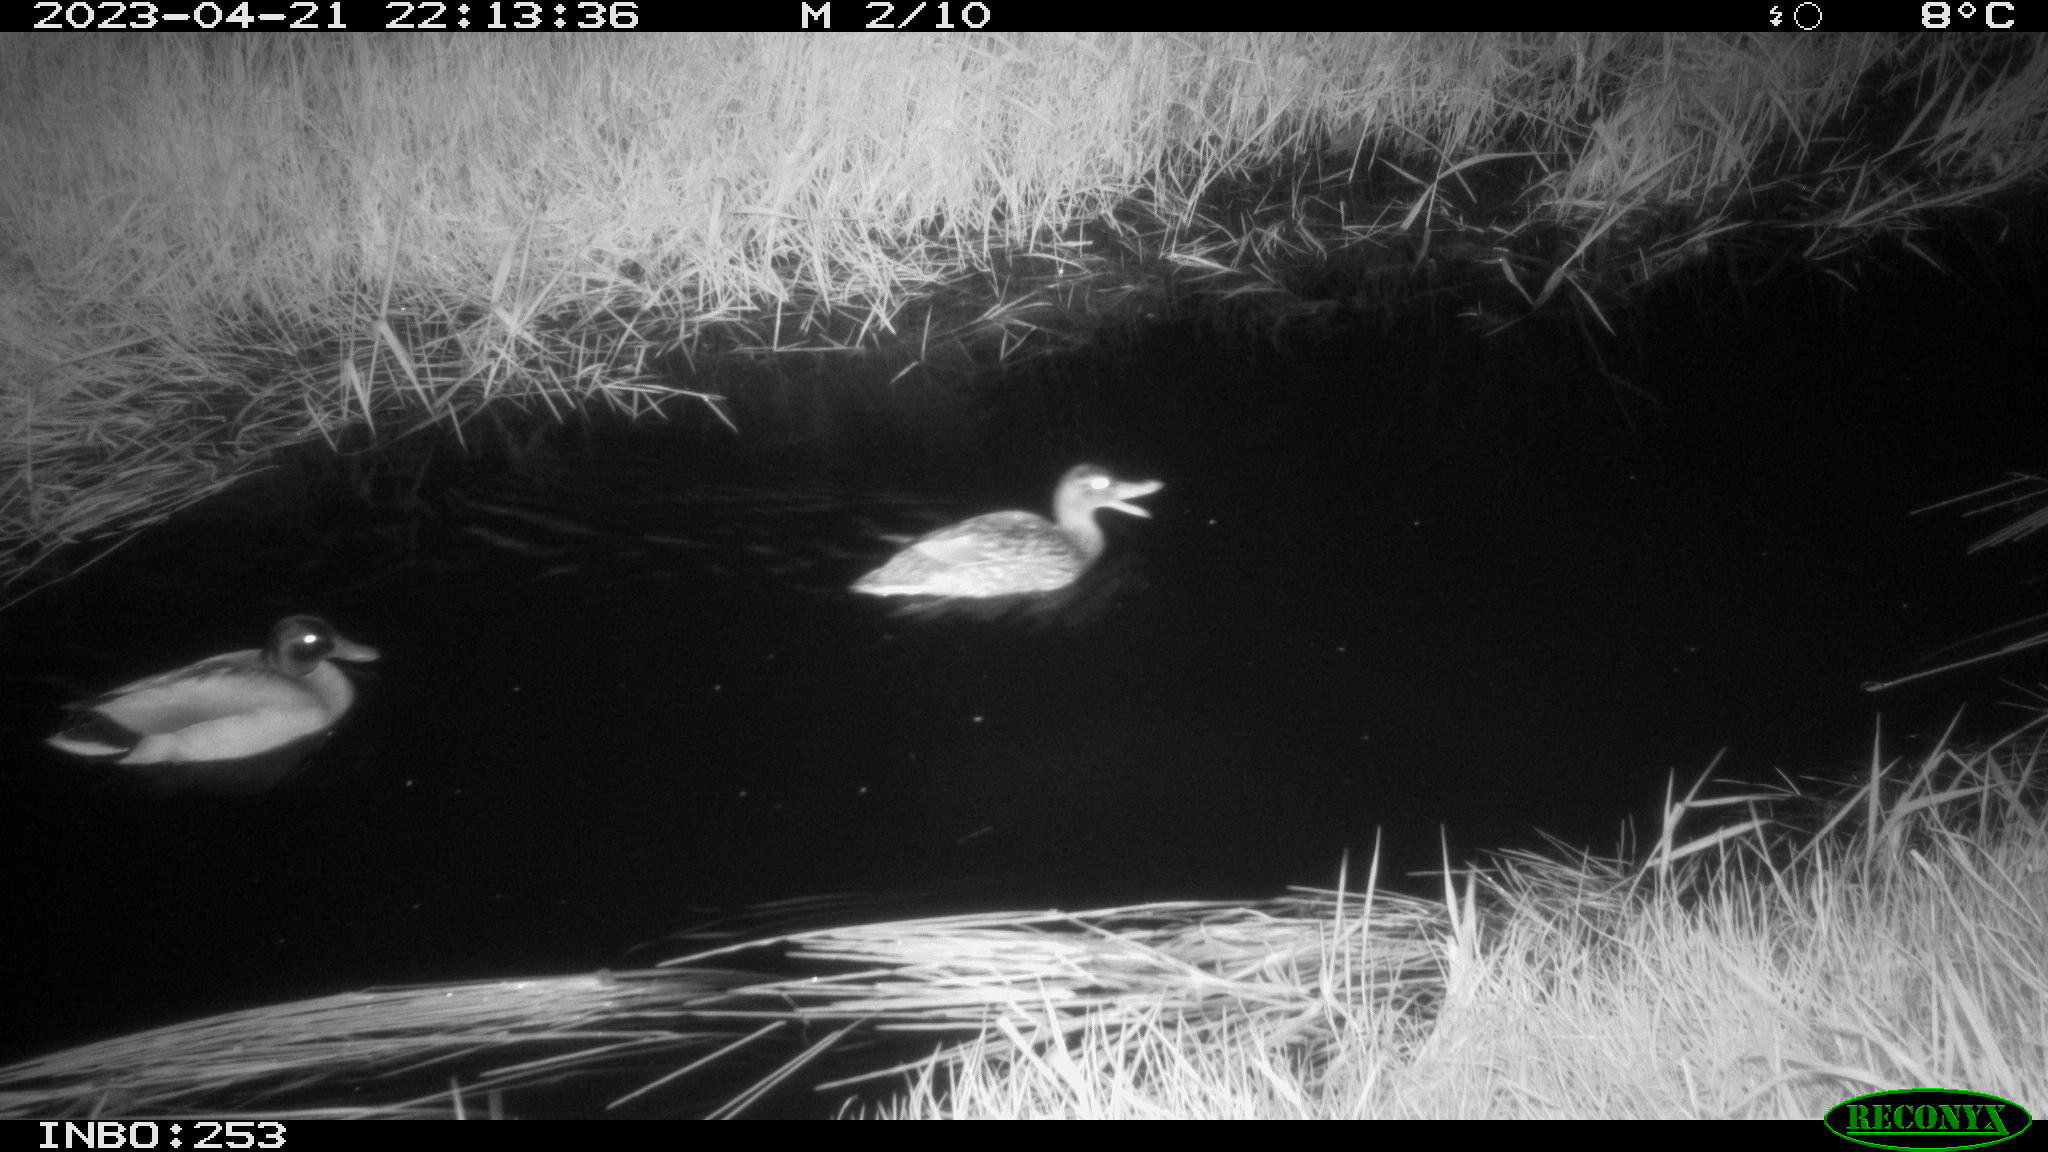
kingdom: Animalia
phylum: Chordata
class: Aves
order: Anseriformes
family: Anatidae
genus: Anas
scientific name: Anas
